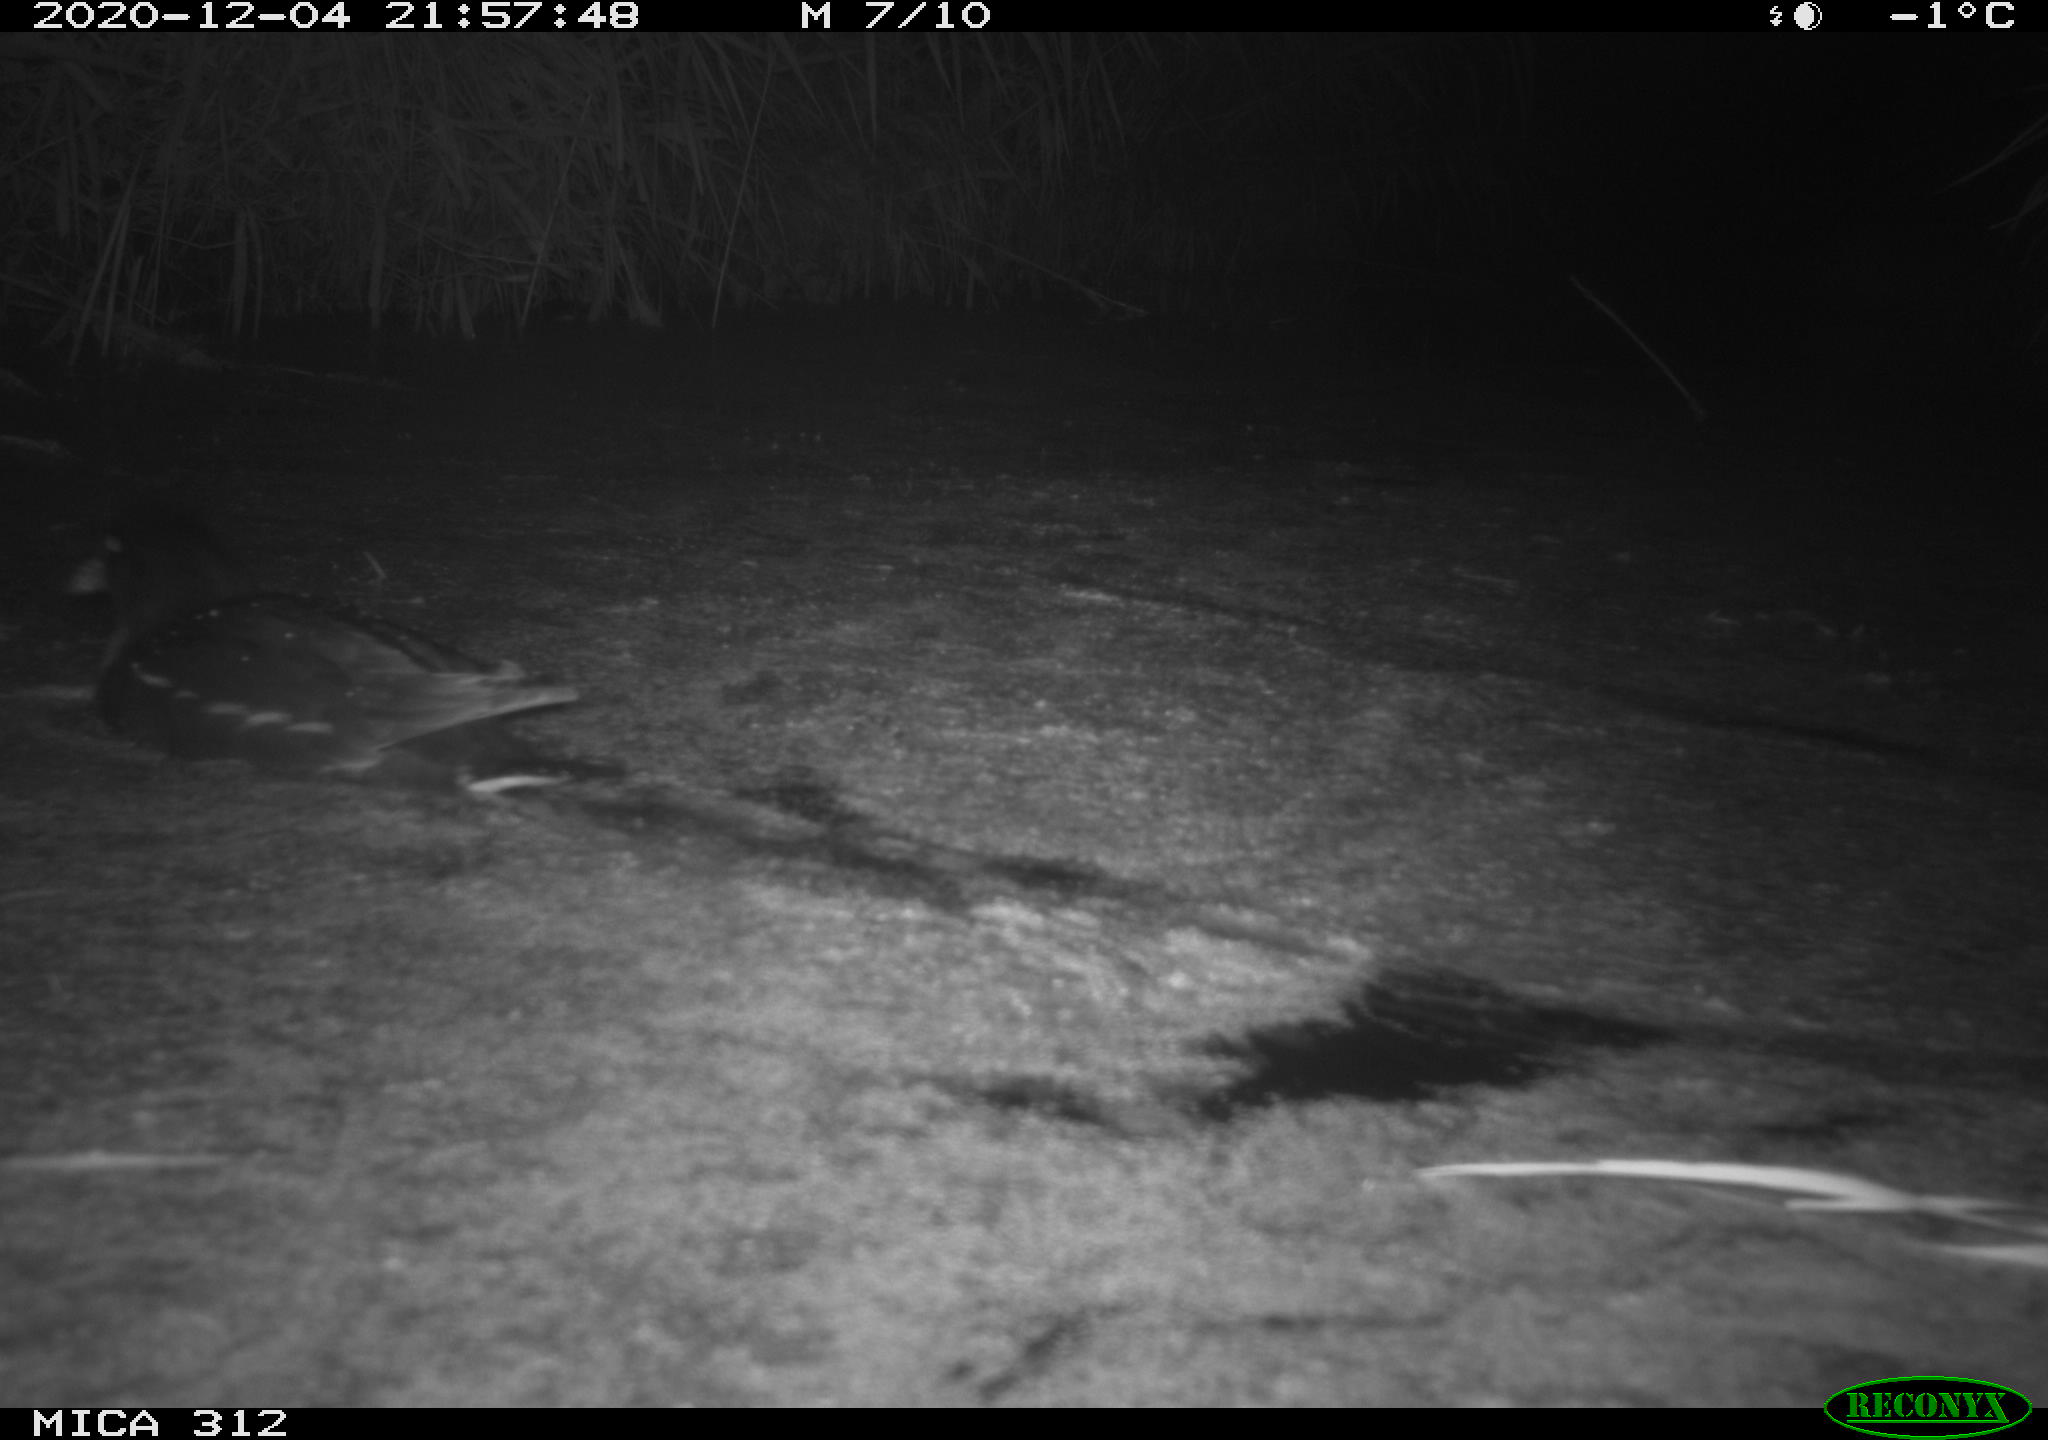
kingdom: Animalia
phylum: Chordata
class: Aves
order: Gruiformes
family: Rallidae
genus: Gallinula
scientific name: Gallinula chloropus
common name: Common moorhen
